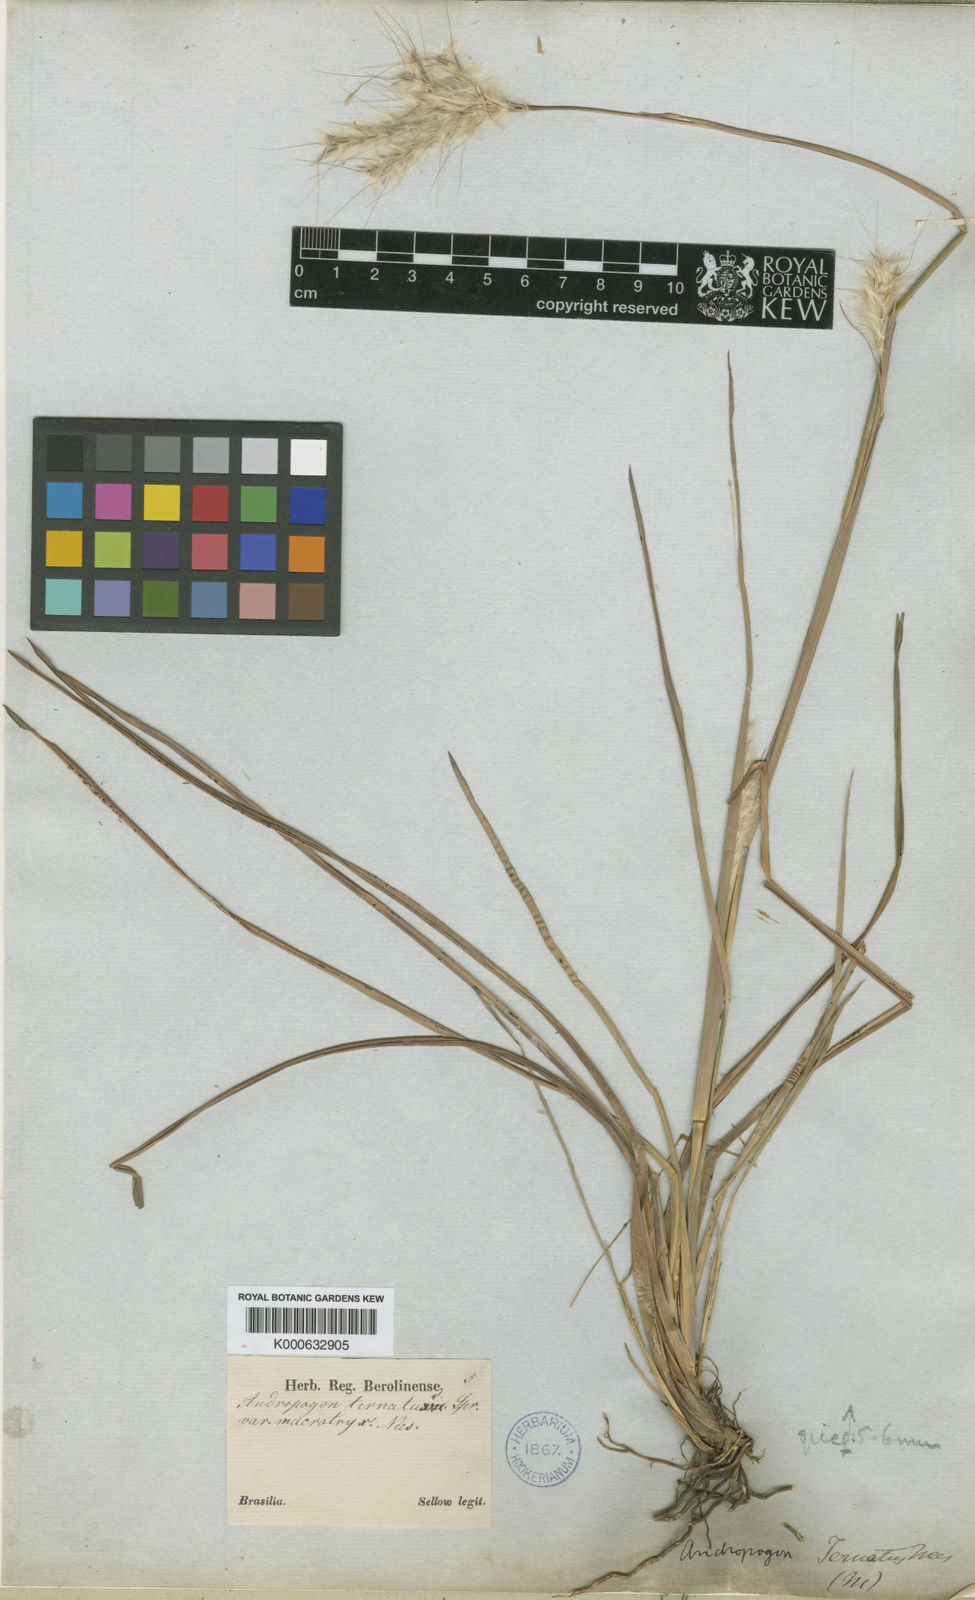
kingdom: Plantae
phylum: Tracheophyta
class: Liliopsida
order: Poales
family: Poaceae
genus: Andropogon
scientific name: Andropogon macrothrix
